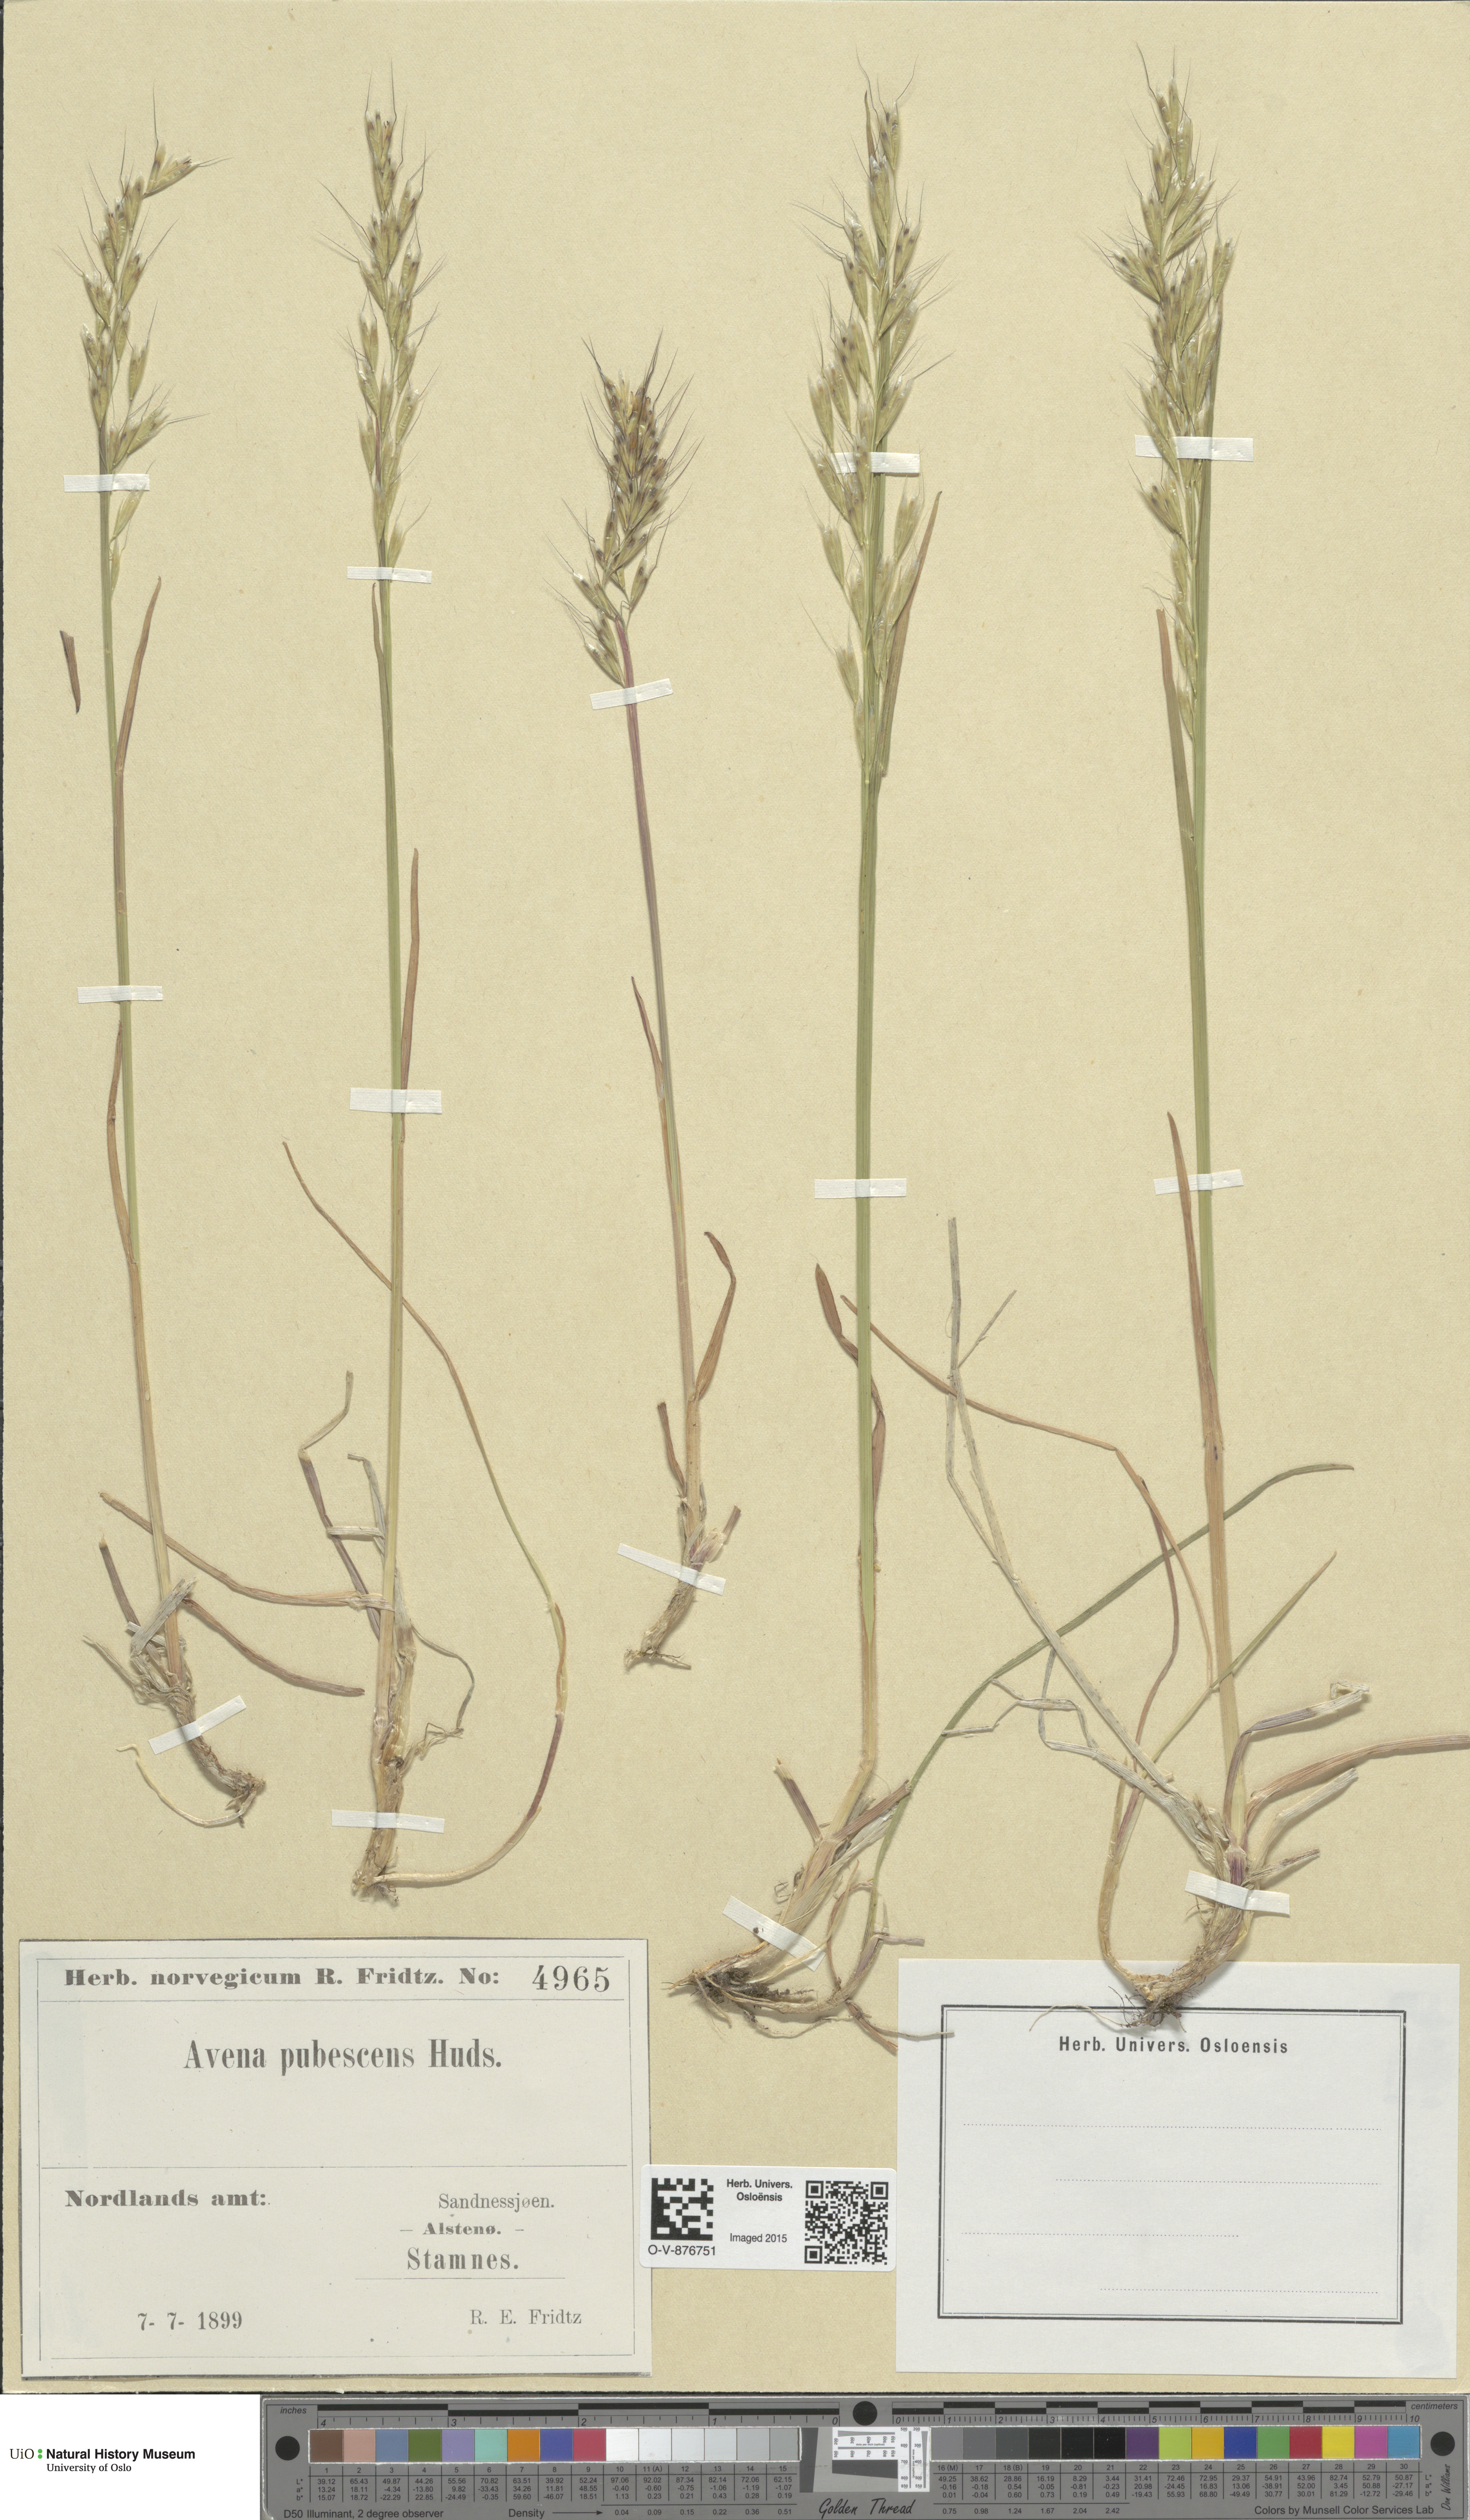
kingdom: Plantae
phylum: Tracheophyta
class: Liliopsida
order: Poales
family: Poaceae
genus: Avenula
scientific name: Avenula pubescens
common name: Downy alpine oatgrass
